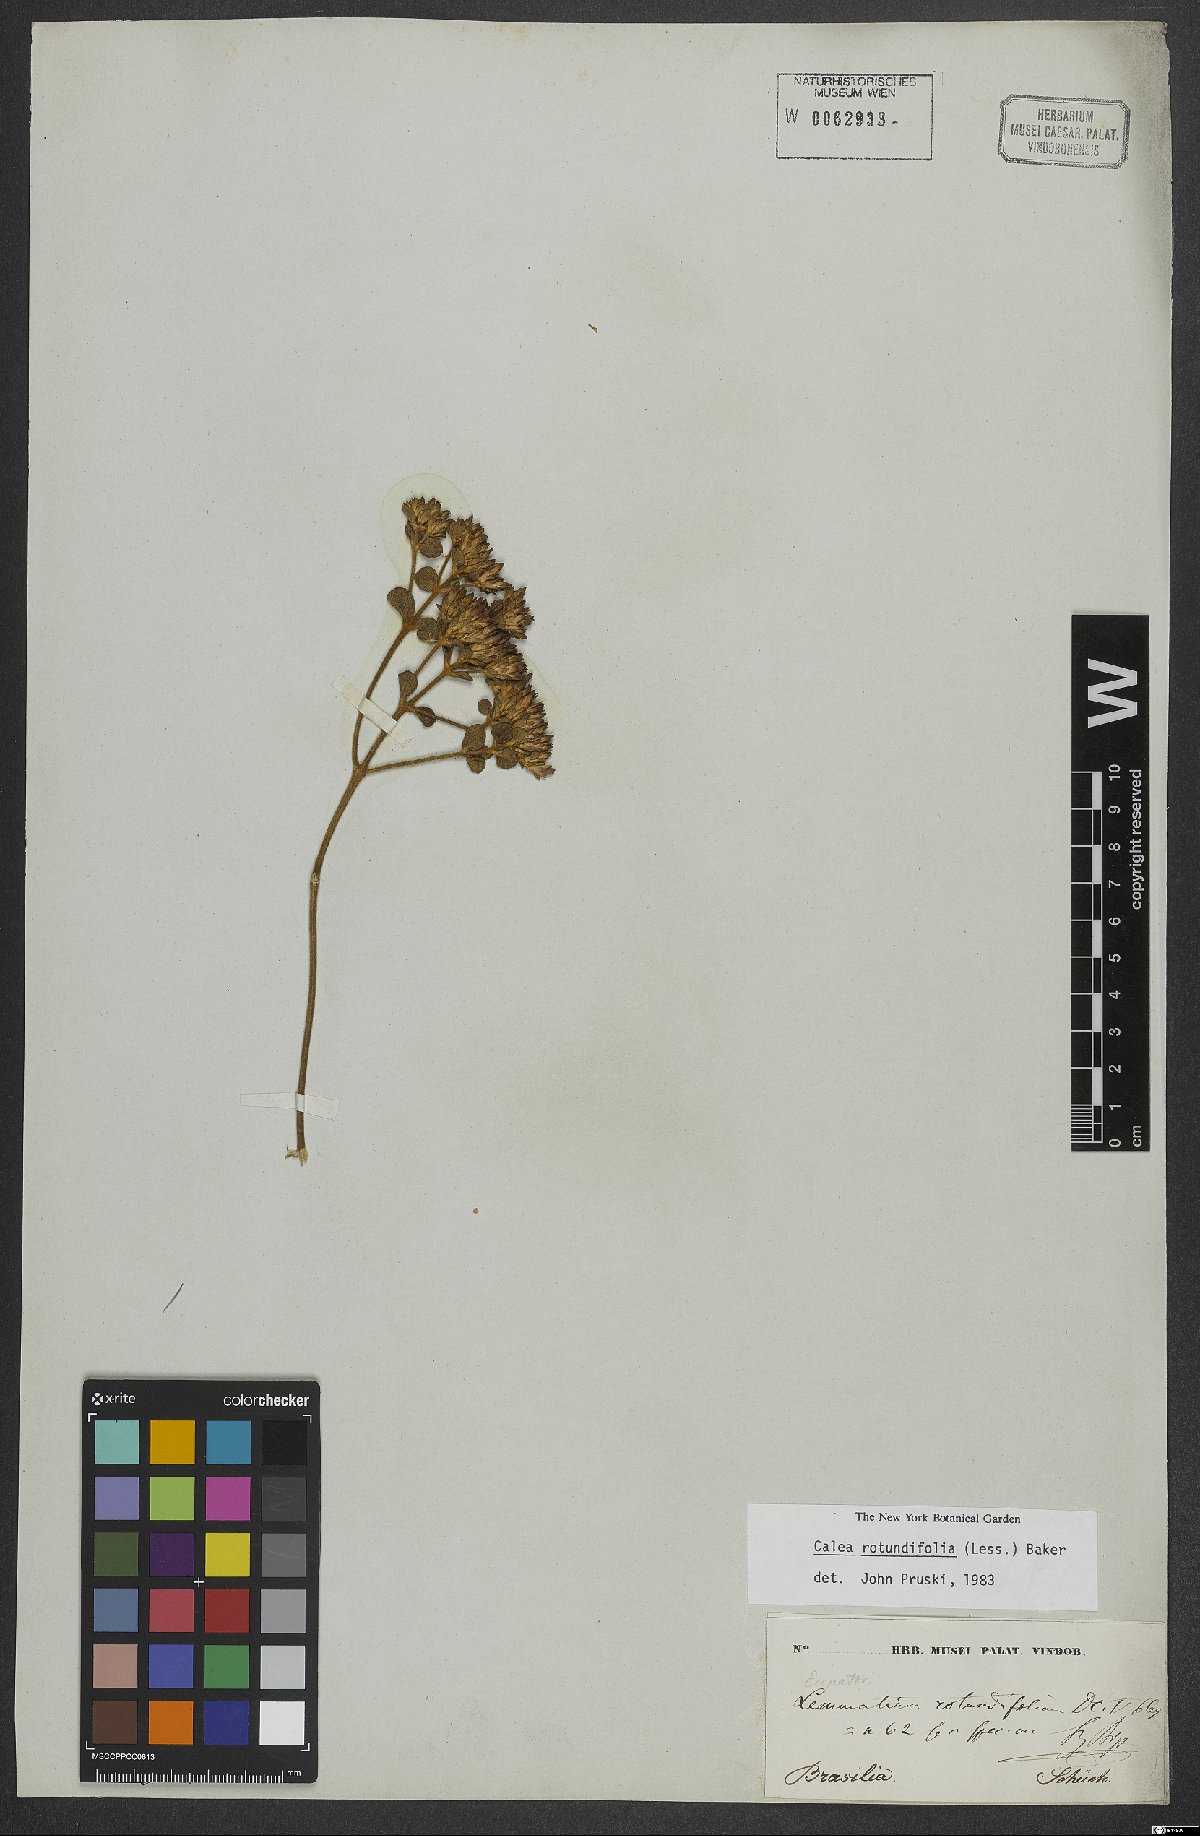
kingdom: Plantae
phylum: Tracheophyta
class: Magnoliopsida
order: Asterales
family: Asteraceae
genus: Calea
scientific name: Calea rotundifolia
